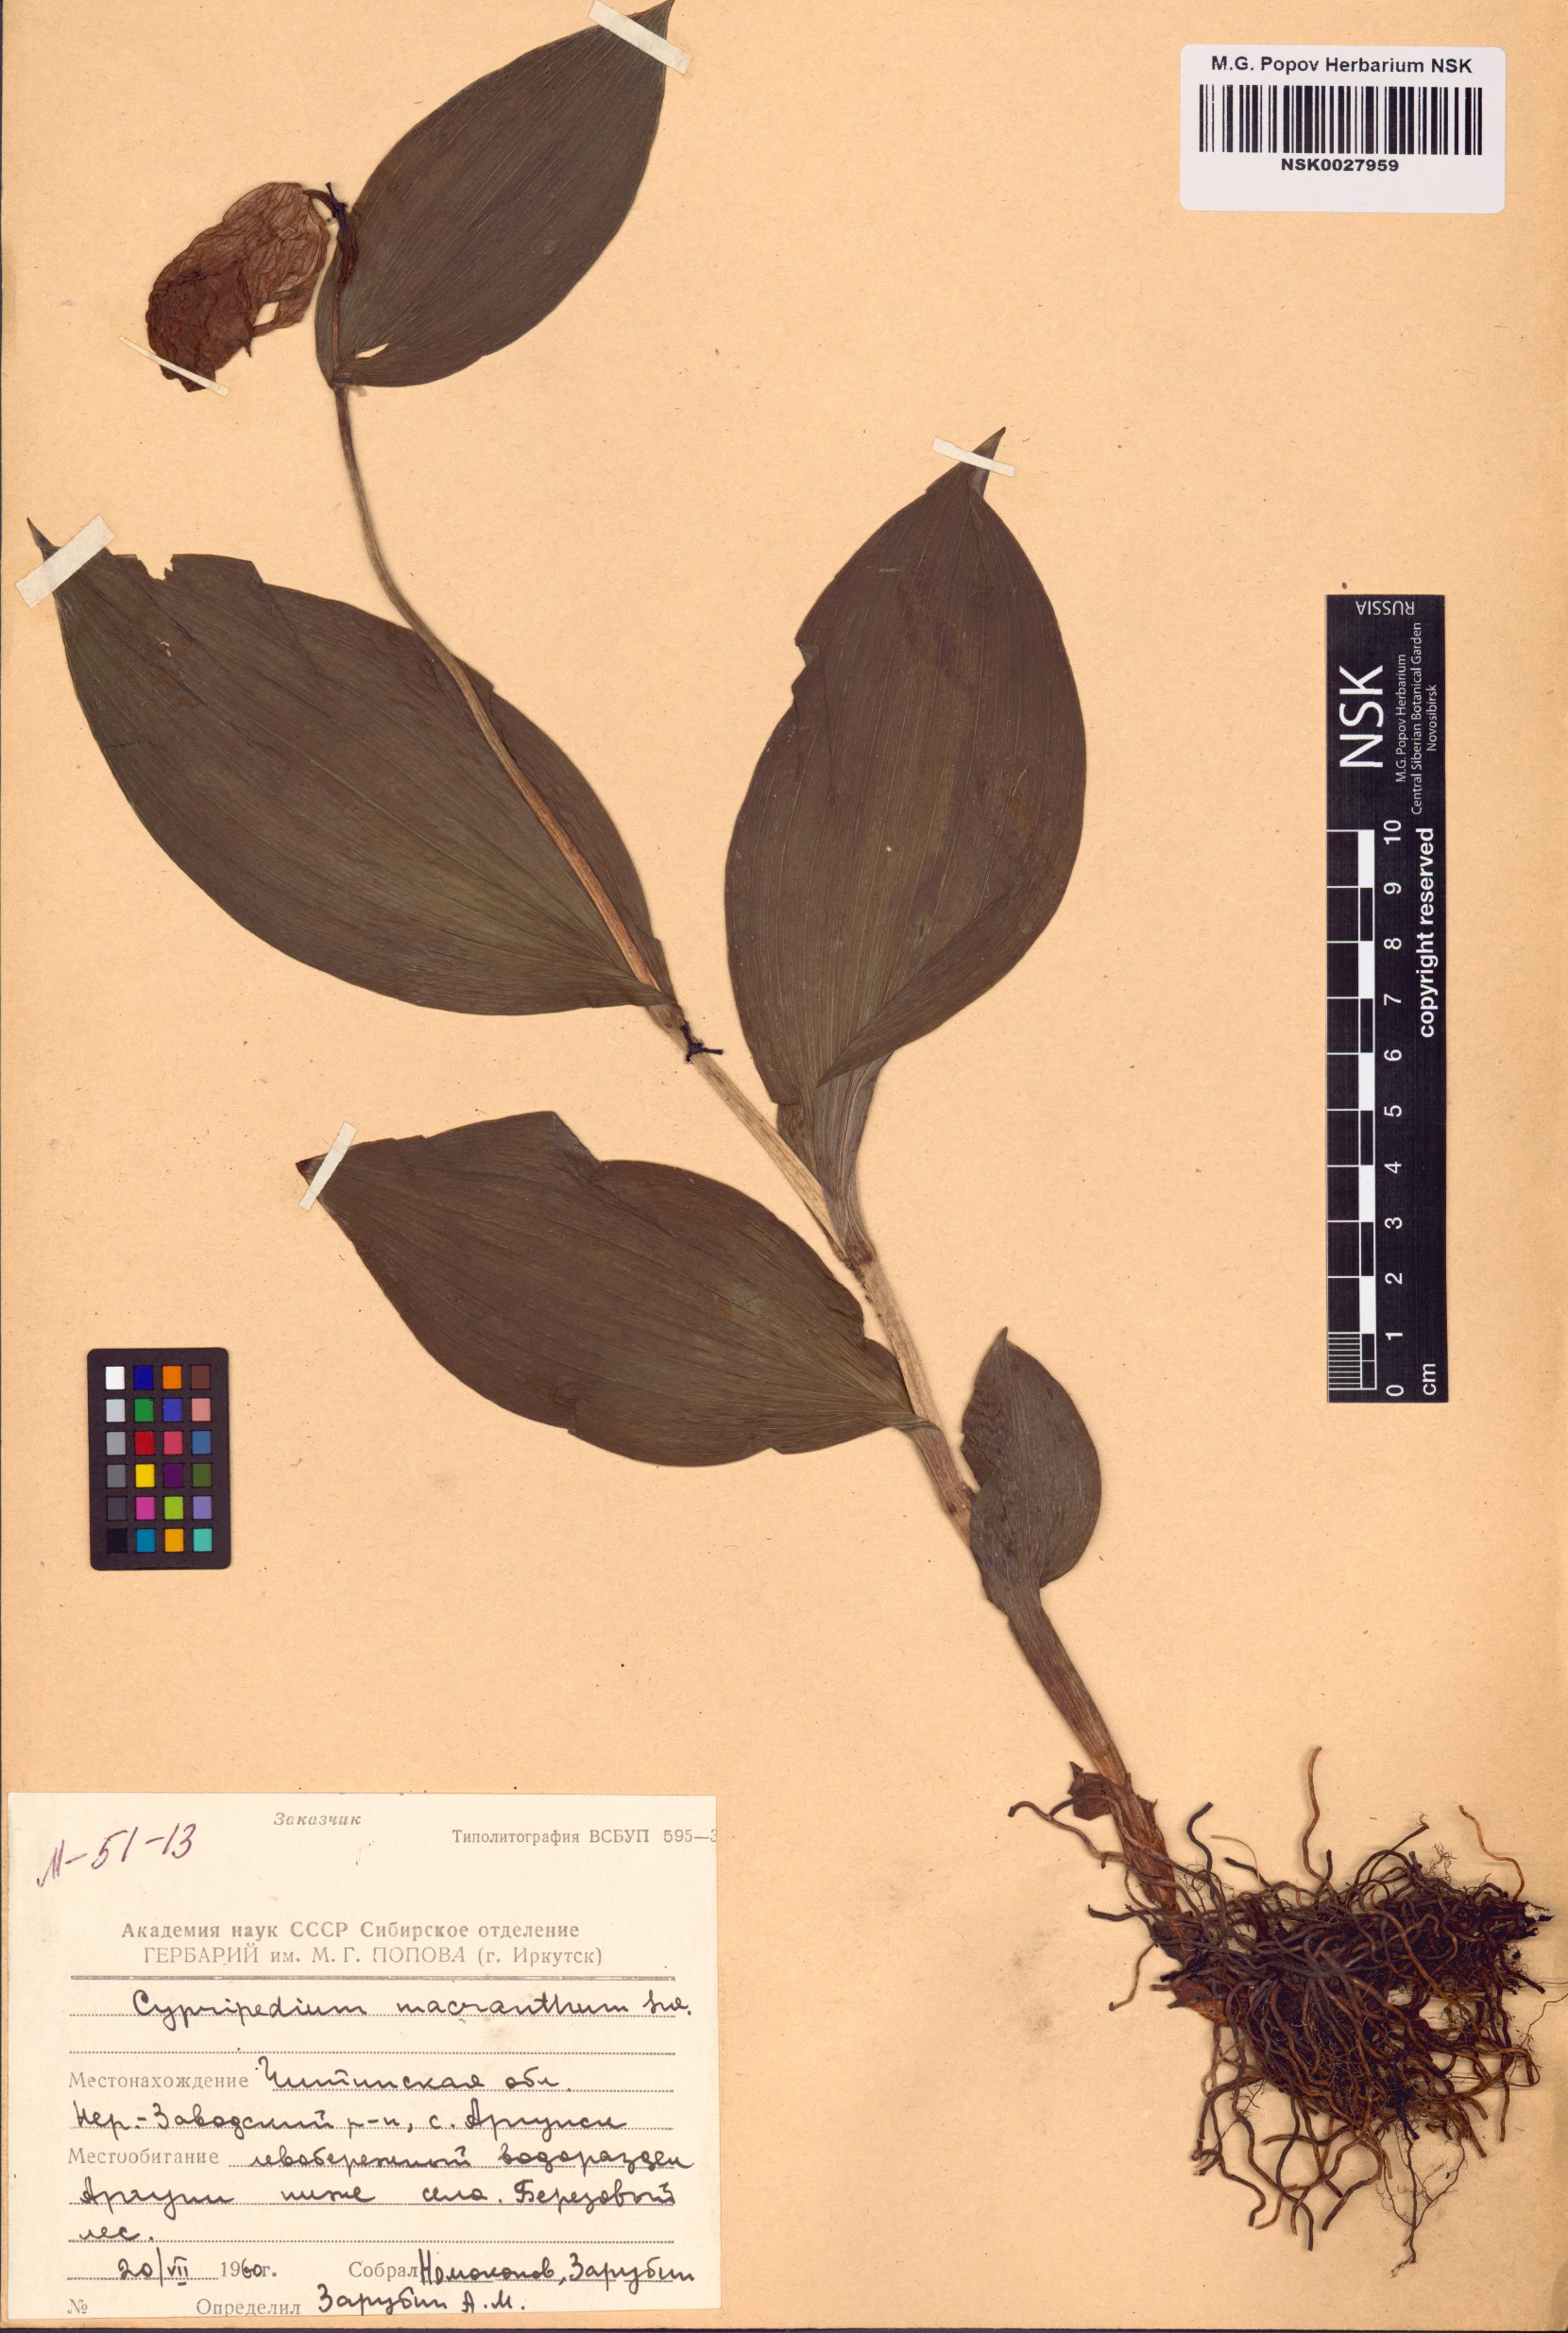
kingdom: Plantae
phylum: Tracheophyta
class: Liliopsida
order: Asparagales
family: Orchidaceae
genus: Cypripedium
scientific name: Cypripedium macranthos
